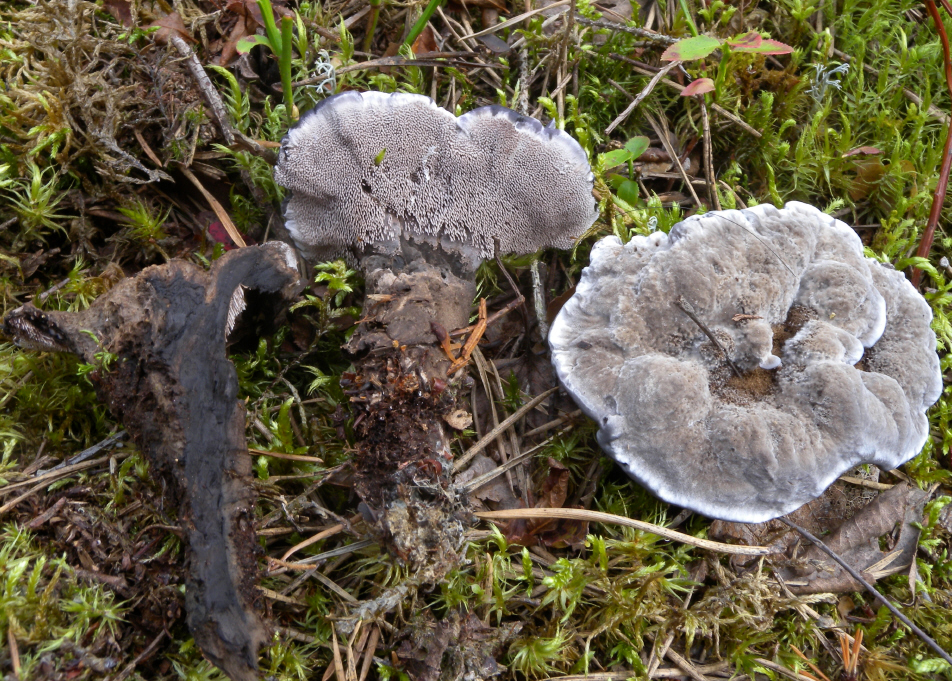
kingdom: Fungi
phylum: Basidiomycota
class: Agaricomycetes
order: Thelephorales
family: Thelephoraceae
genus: Phellodon
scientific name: Phellodon niger
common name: Black tooth
